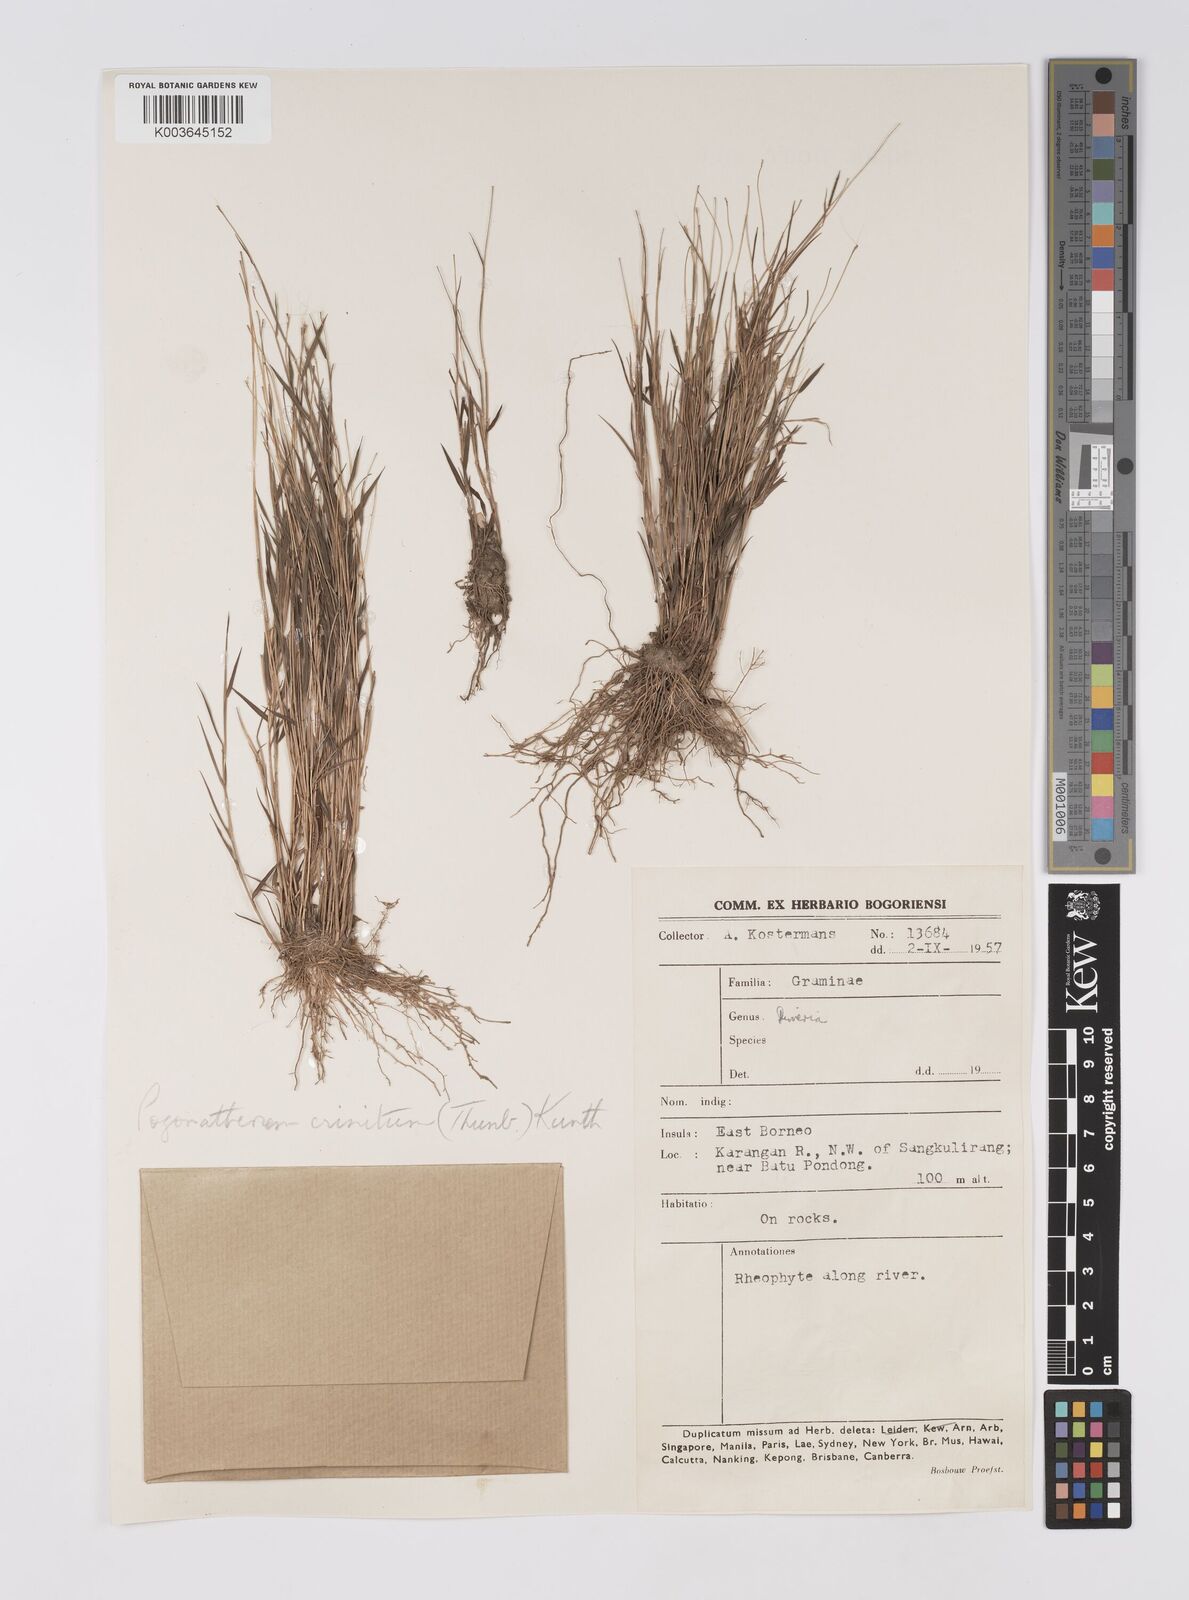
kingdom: Plantae
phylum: Tracheophyta
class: Liliopsida
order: Poales
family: Poaceae
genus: Pogonatherum
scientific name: Pogonatherum crinitum
